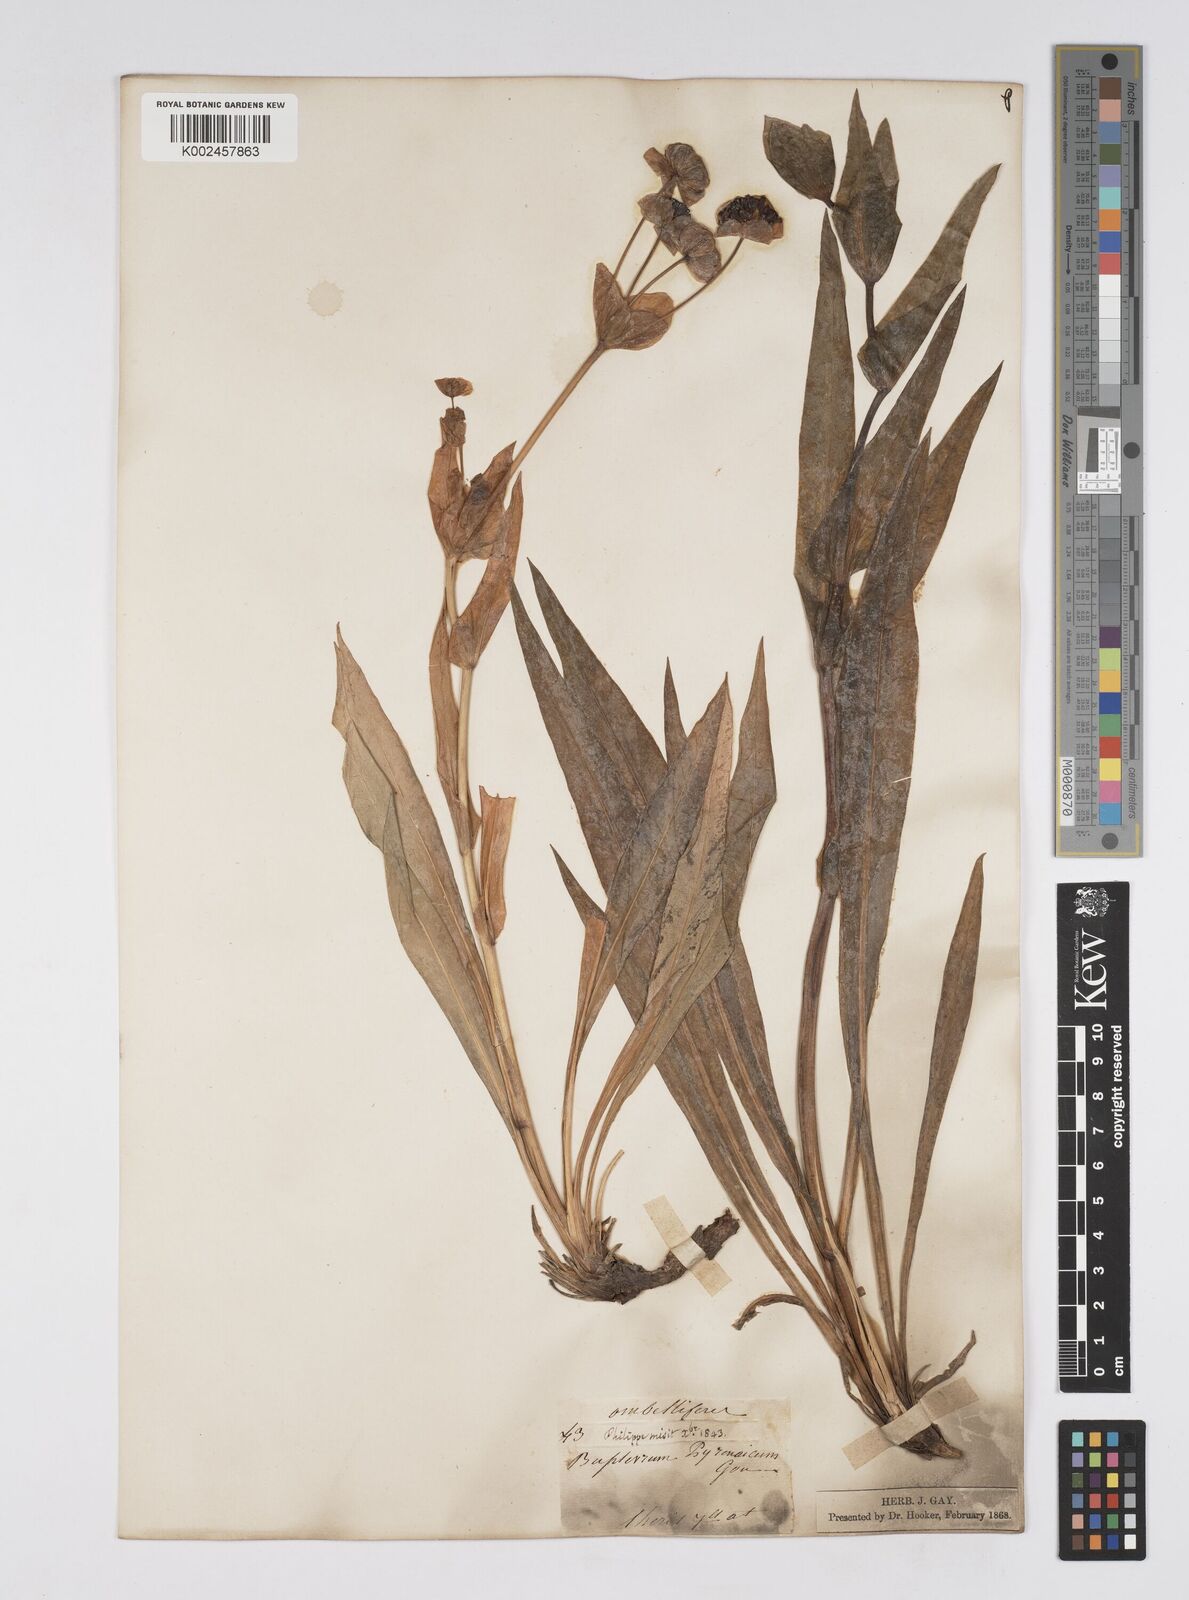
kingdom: Plantae
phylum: Tracheophyta
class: Magnoliopsida
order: Apiales
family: Apiaceae
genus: Bupleurum
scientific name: Bupleurum angulosum
